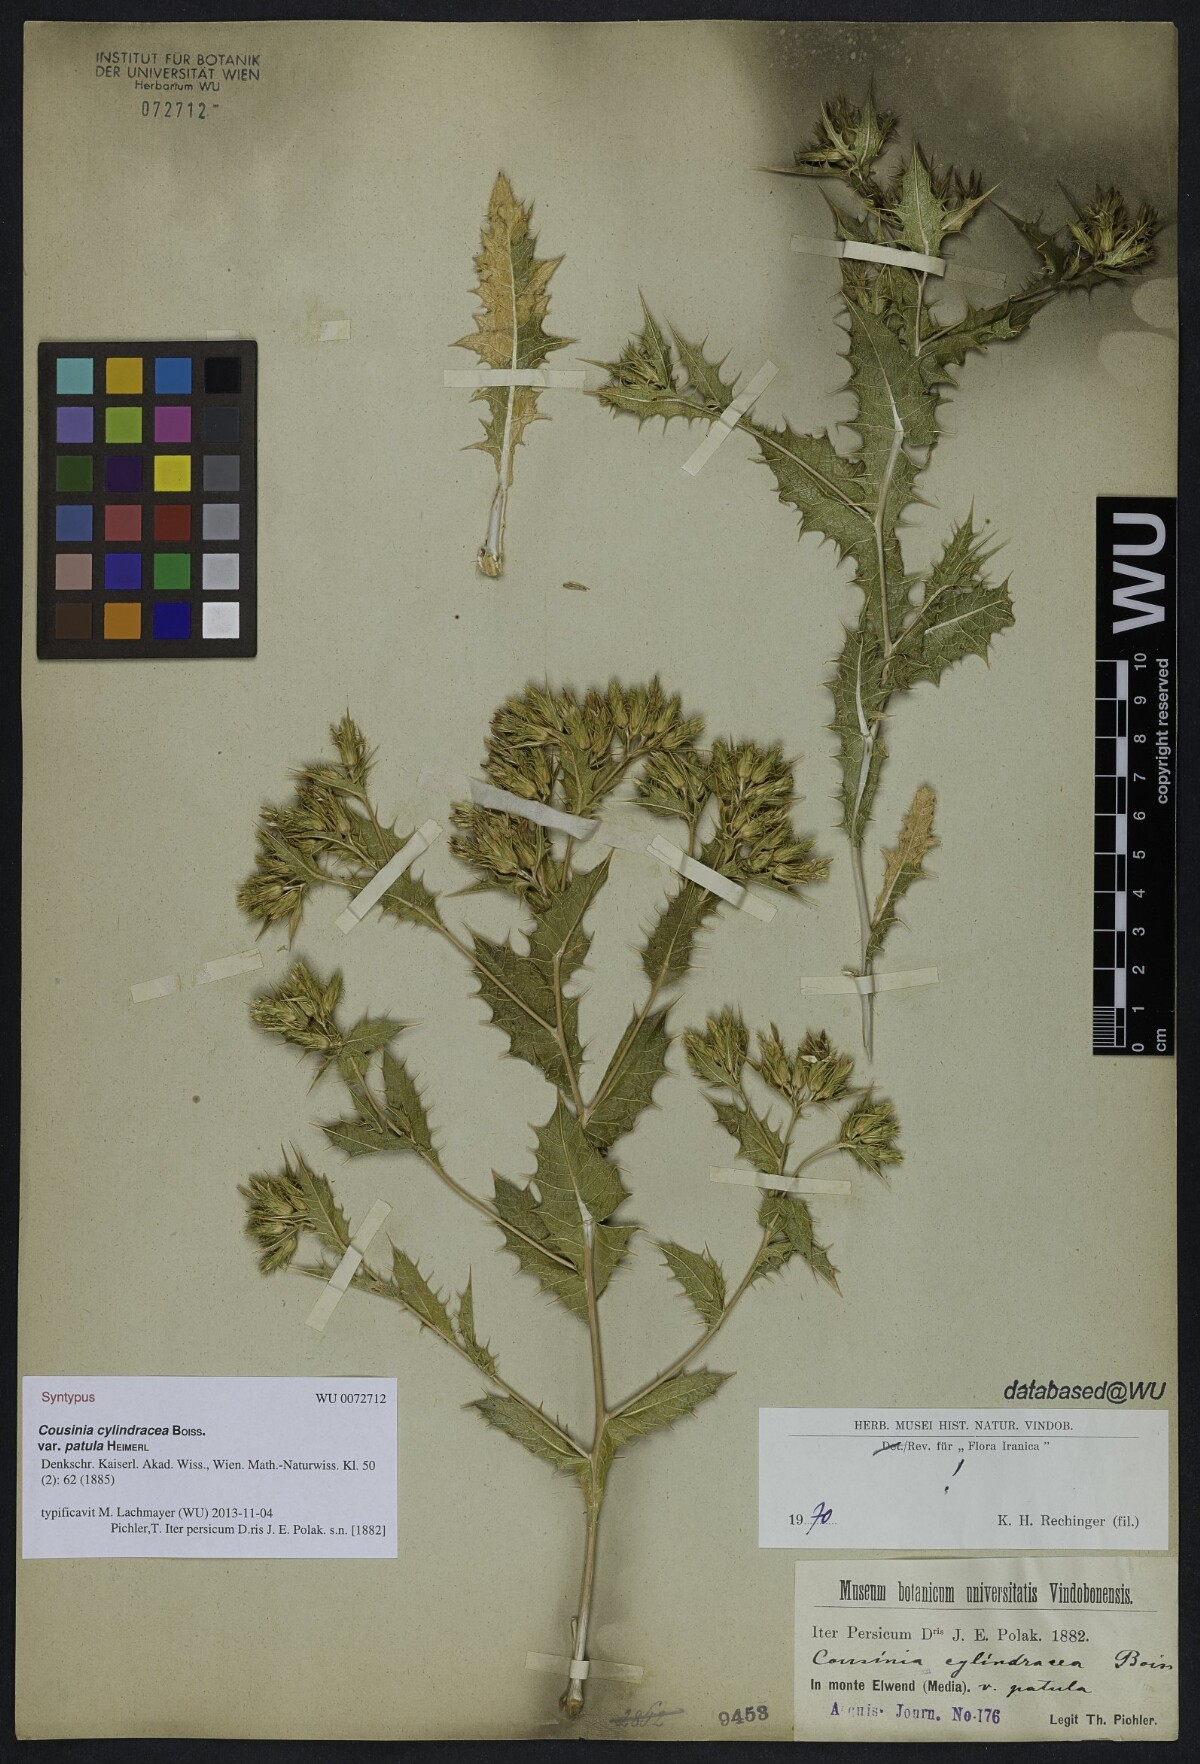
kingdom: Plantae
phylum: Tracheophyta
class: Magnoliopsida
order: Asterales
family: Asteraceae
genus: Cousinia
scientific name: Cousinia cylindracea
